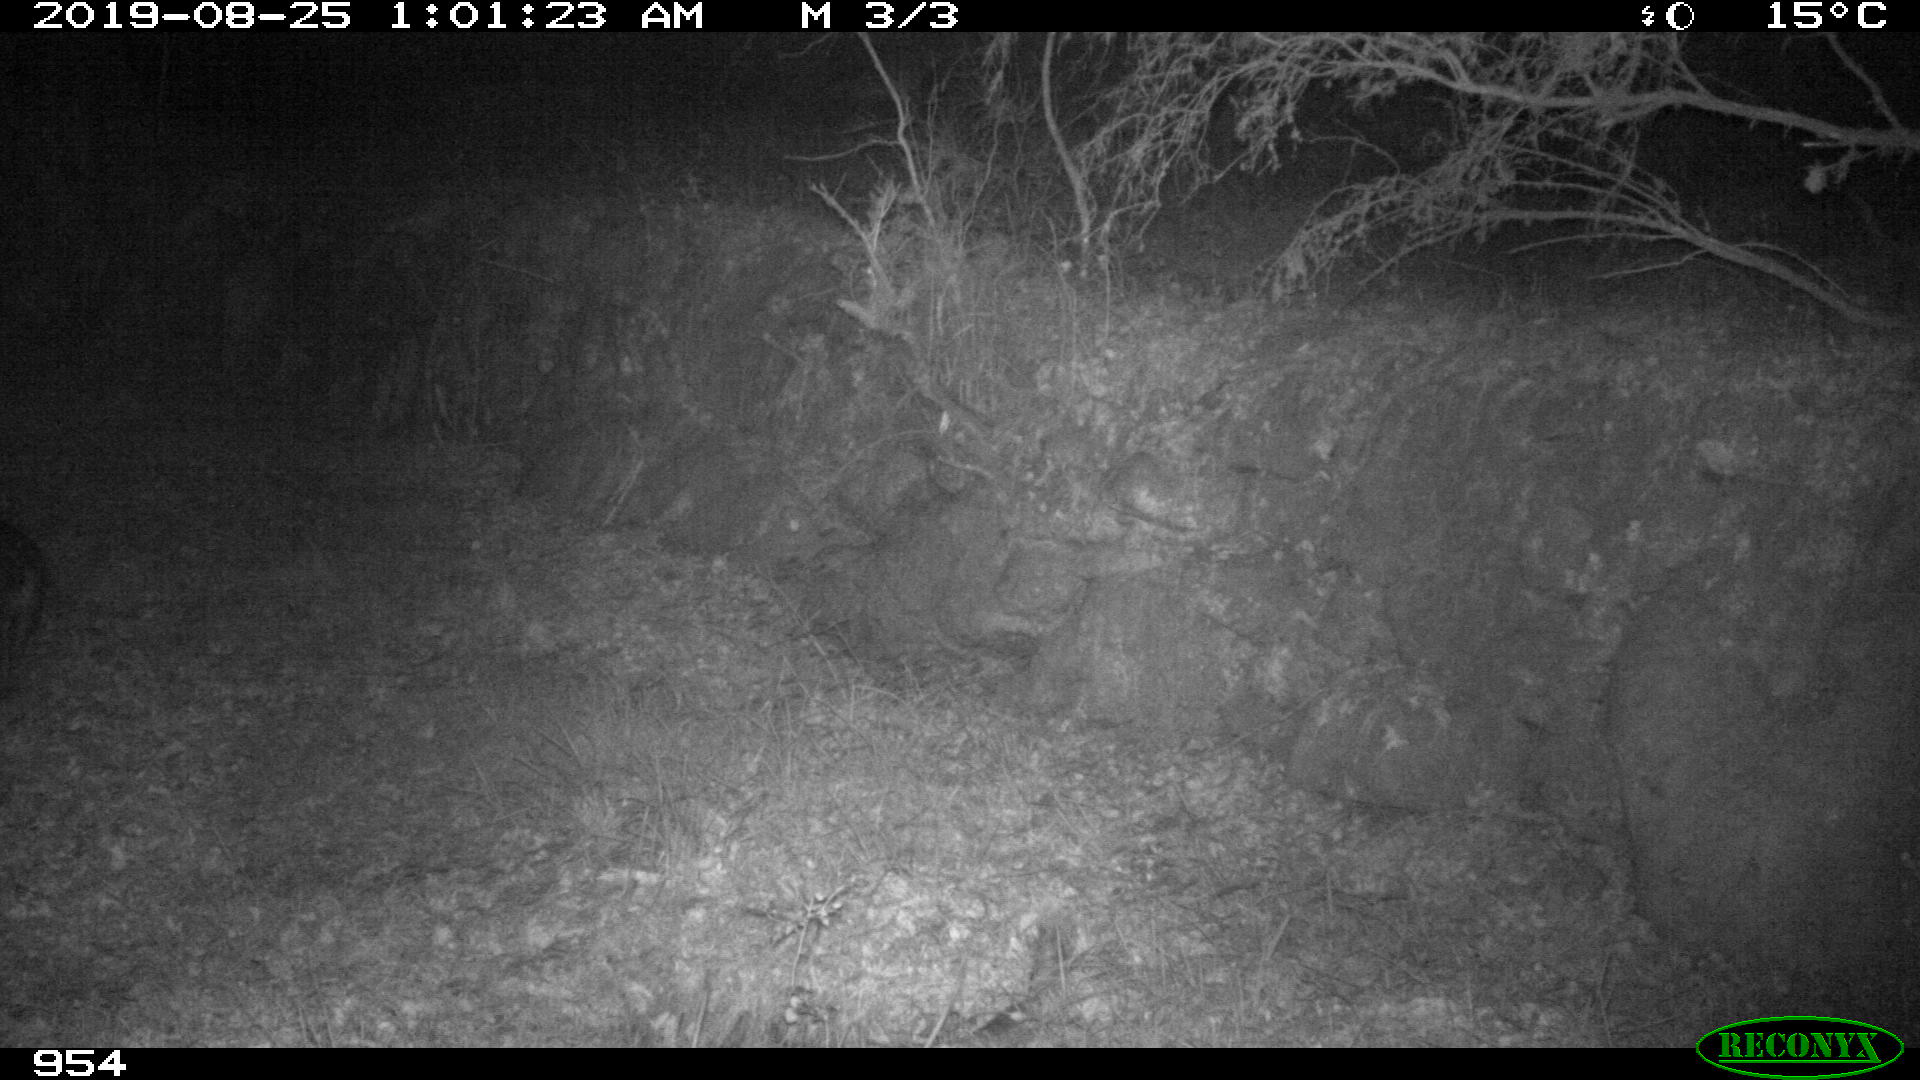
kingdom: Animalia
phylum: Chordata
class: Mammalia
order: Artiodactyla
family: Suidae
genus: Sus
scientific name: Sus scrofa
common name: Wild boar
